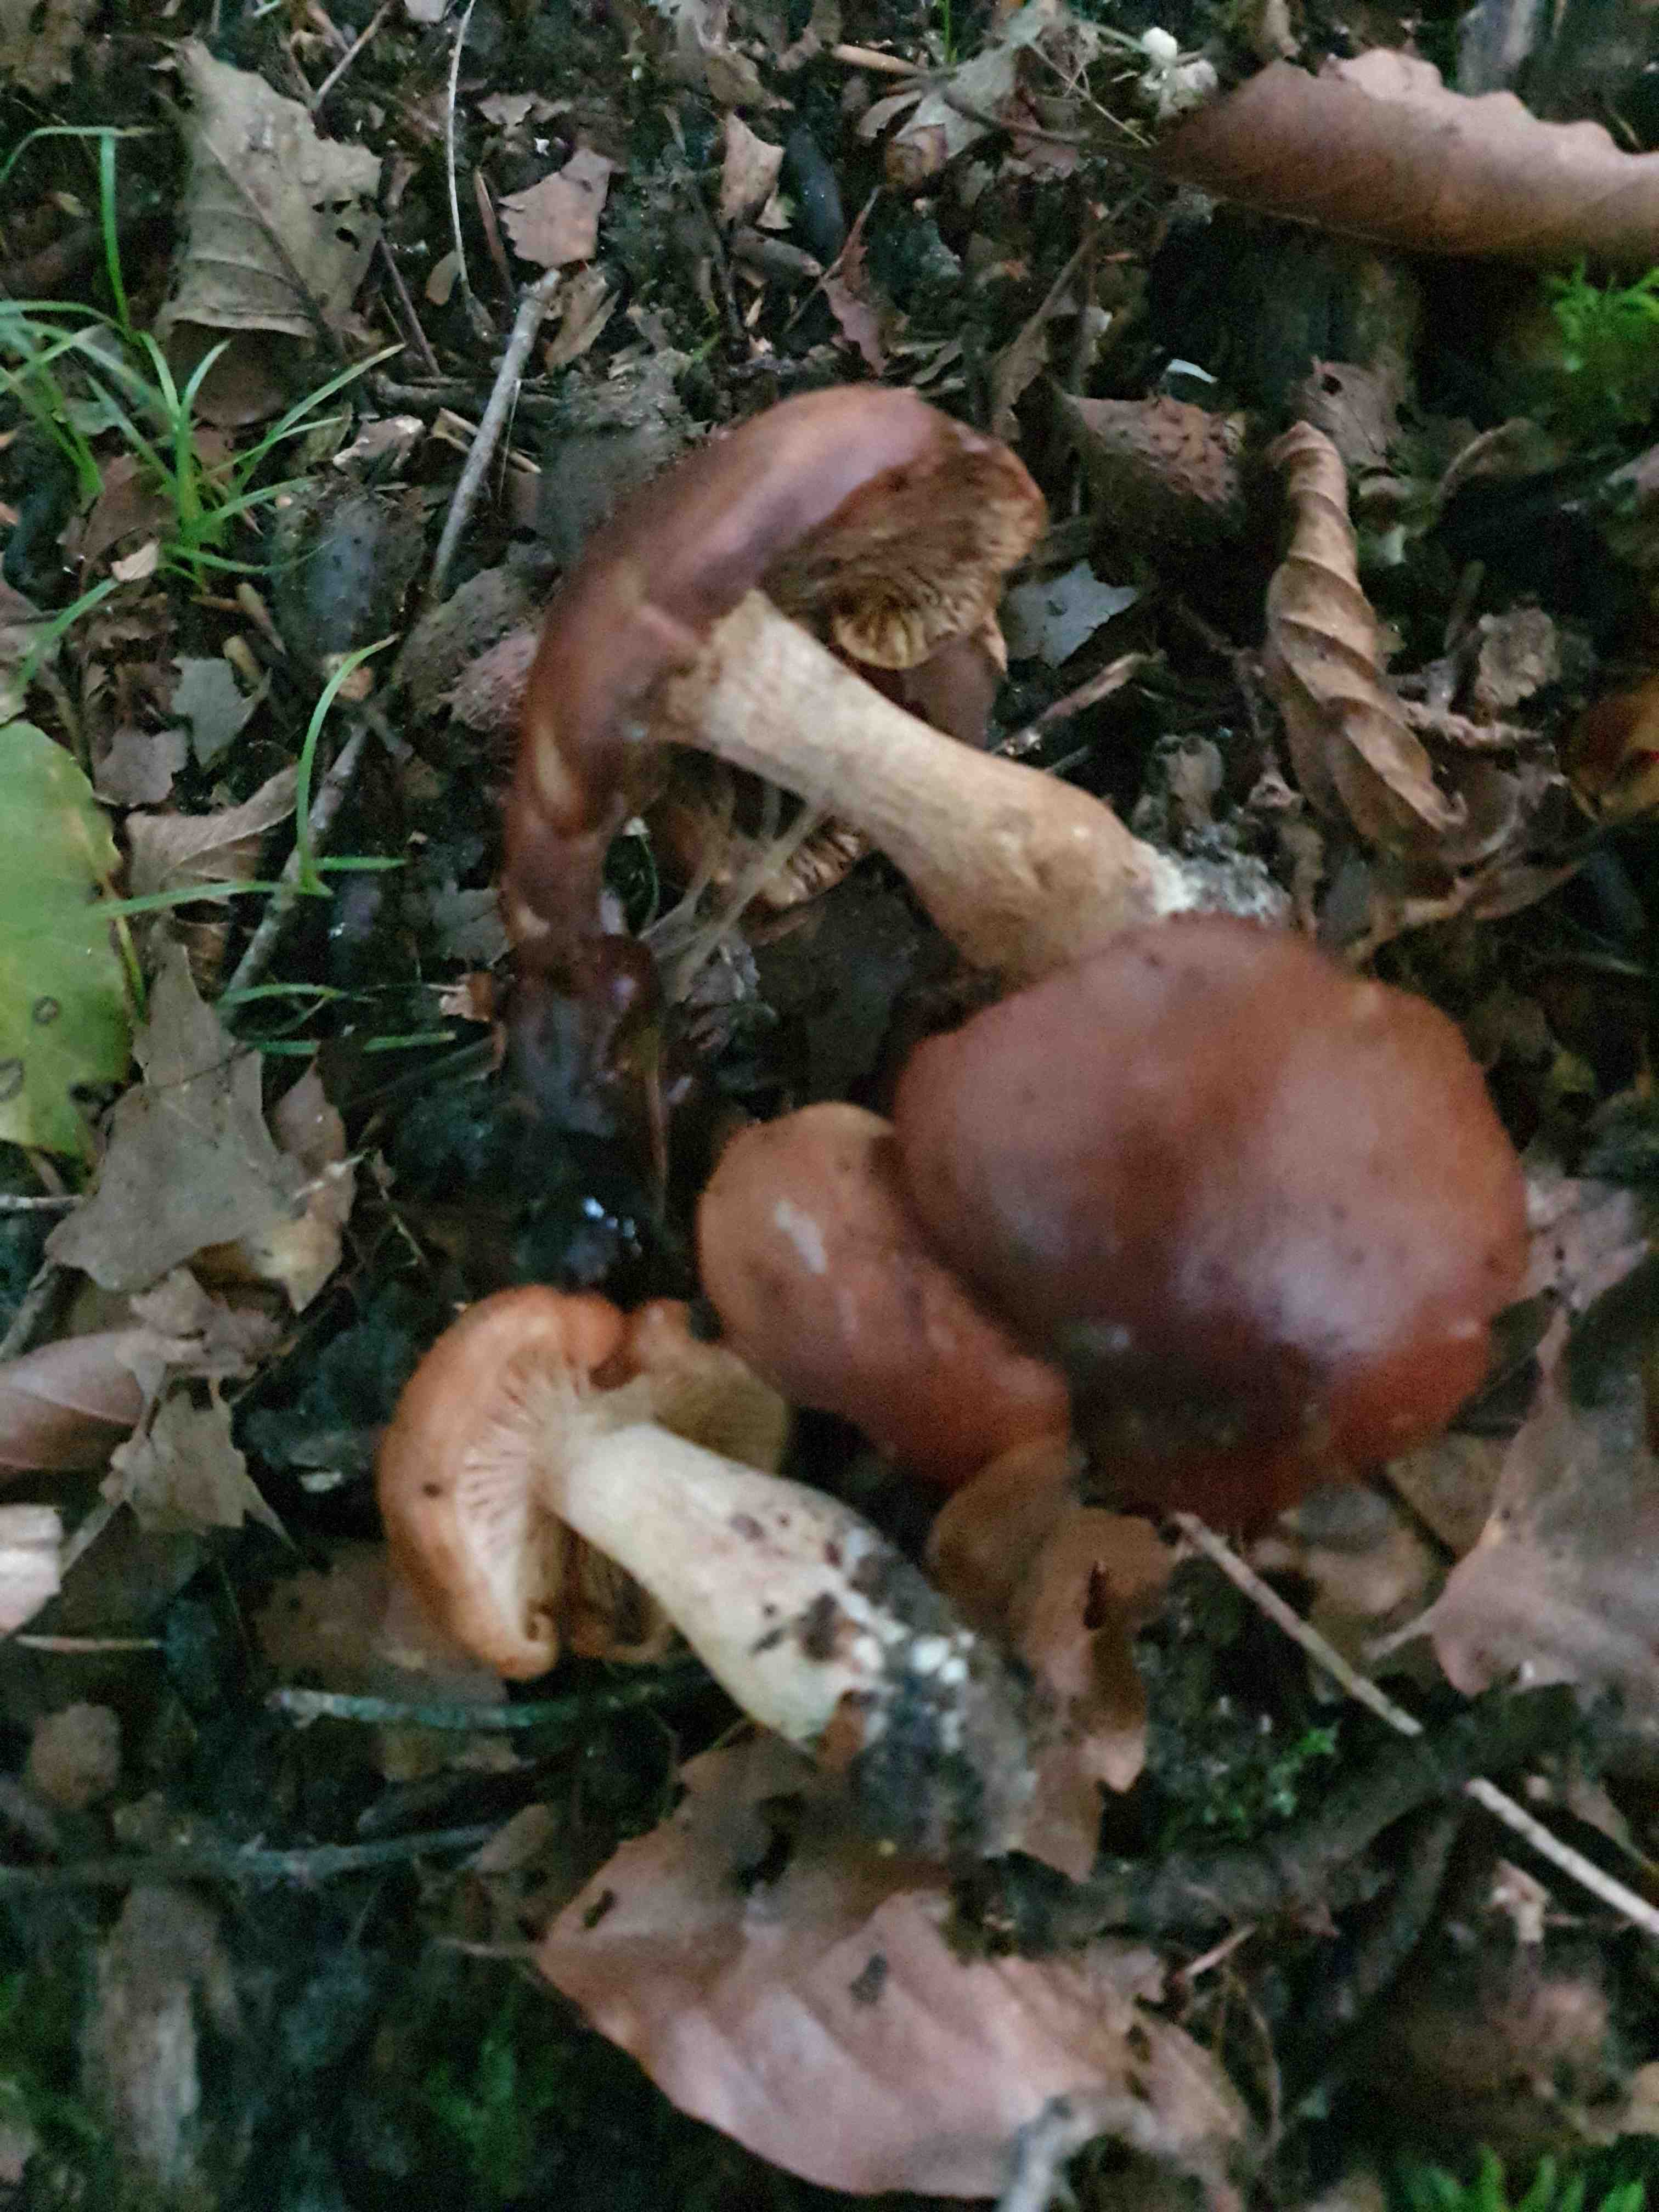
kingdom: Fungi
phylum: Basidiomycota
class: Agaricomycetes
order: Agaricales
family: Tricholomataceae
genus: Tricholoma
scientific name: Tricholoma ustale
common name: sveden ridderhat
